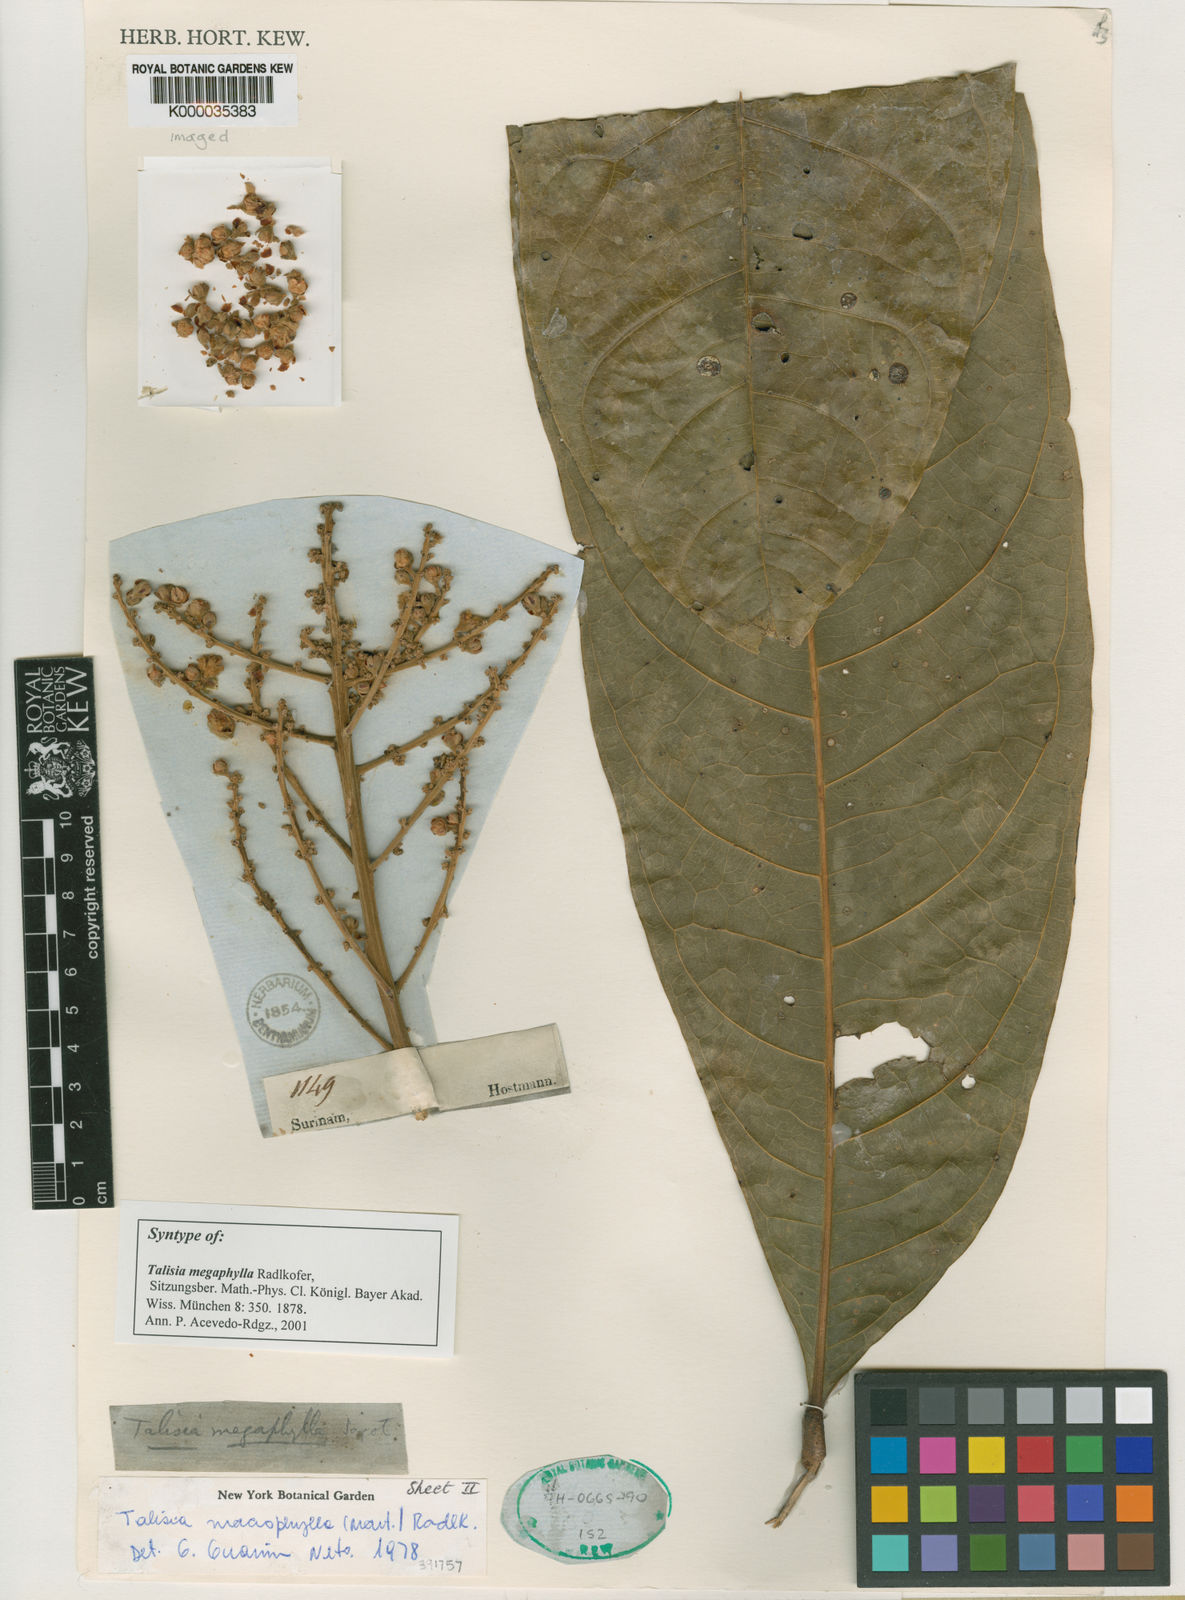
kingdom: Plantae
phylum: Tracheophyta
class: Magnoliopsida
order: Sapindales
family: Sapindaceae
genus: Talisia
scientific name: Talisia
